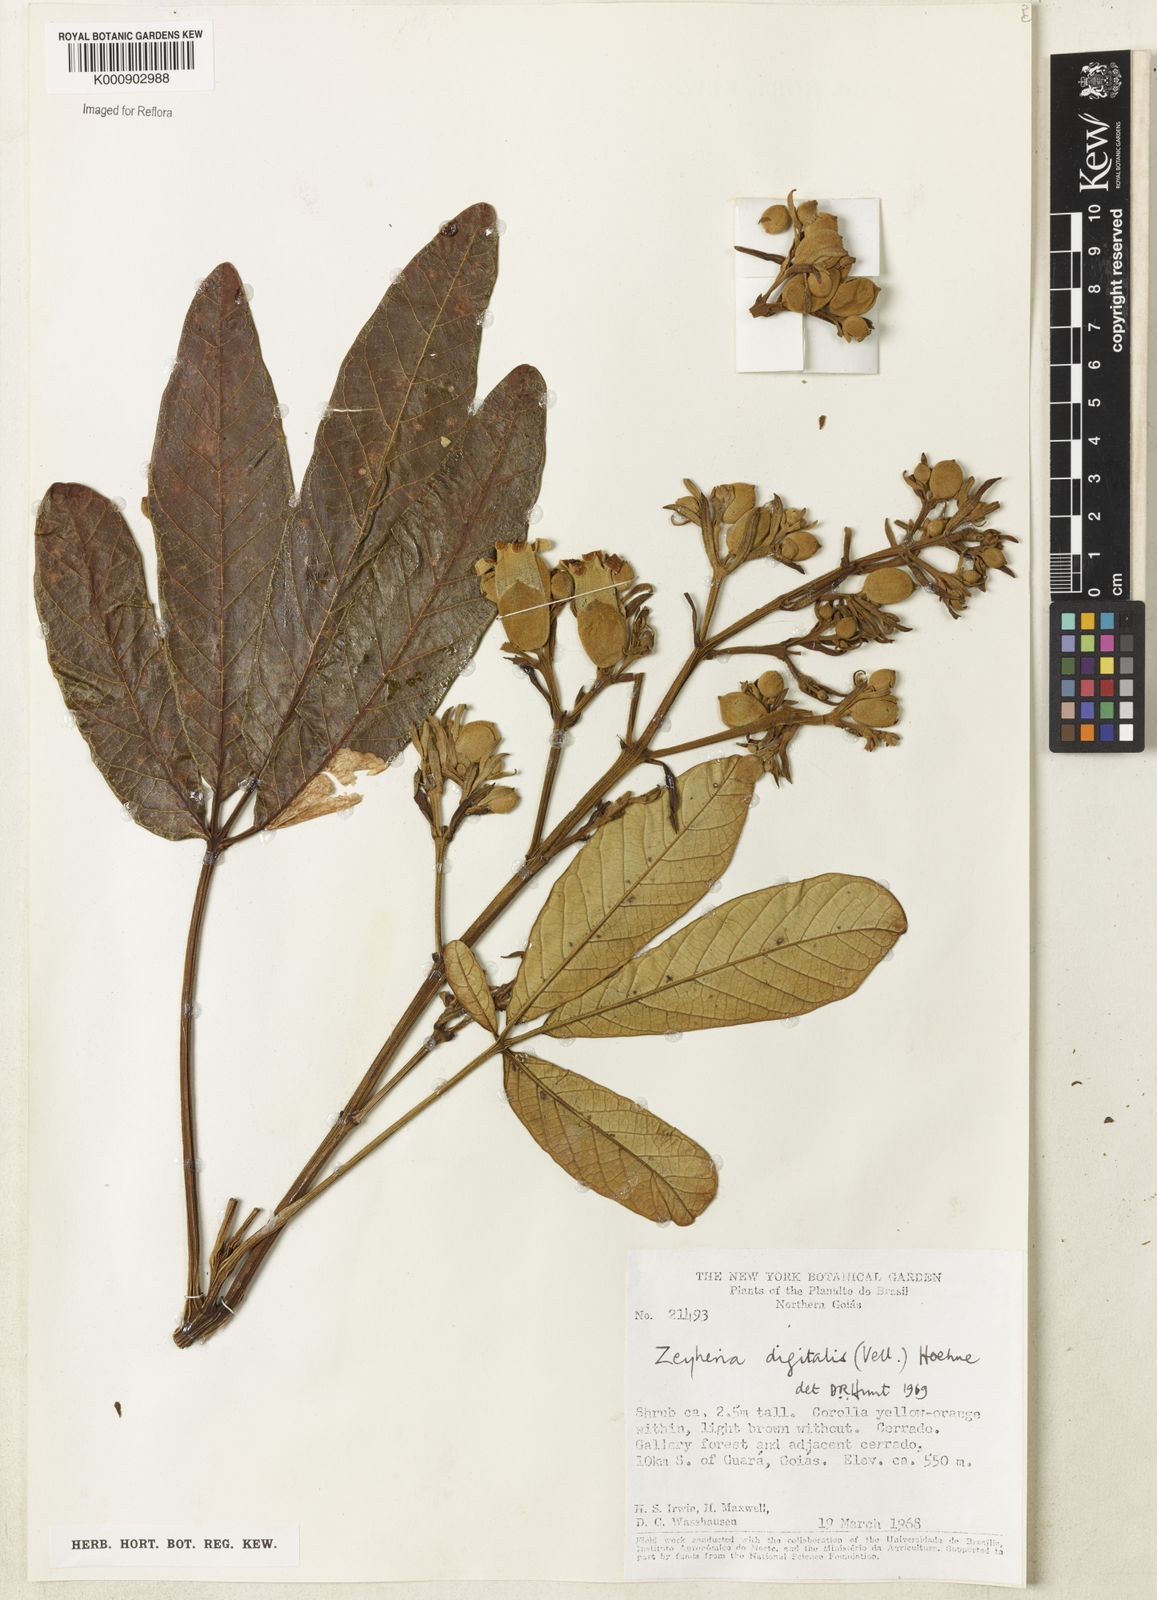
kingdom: Plantae
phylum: Tracheophyta
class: Magnoliopsida
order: Lamiales
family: Bignoniaceae
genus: Zeyheria
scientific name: Zeyheria
